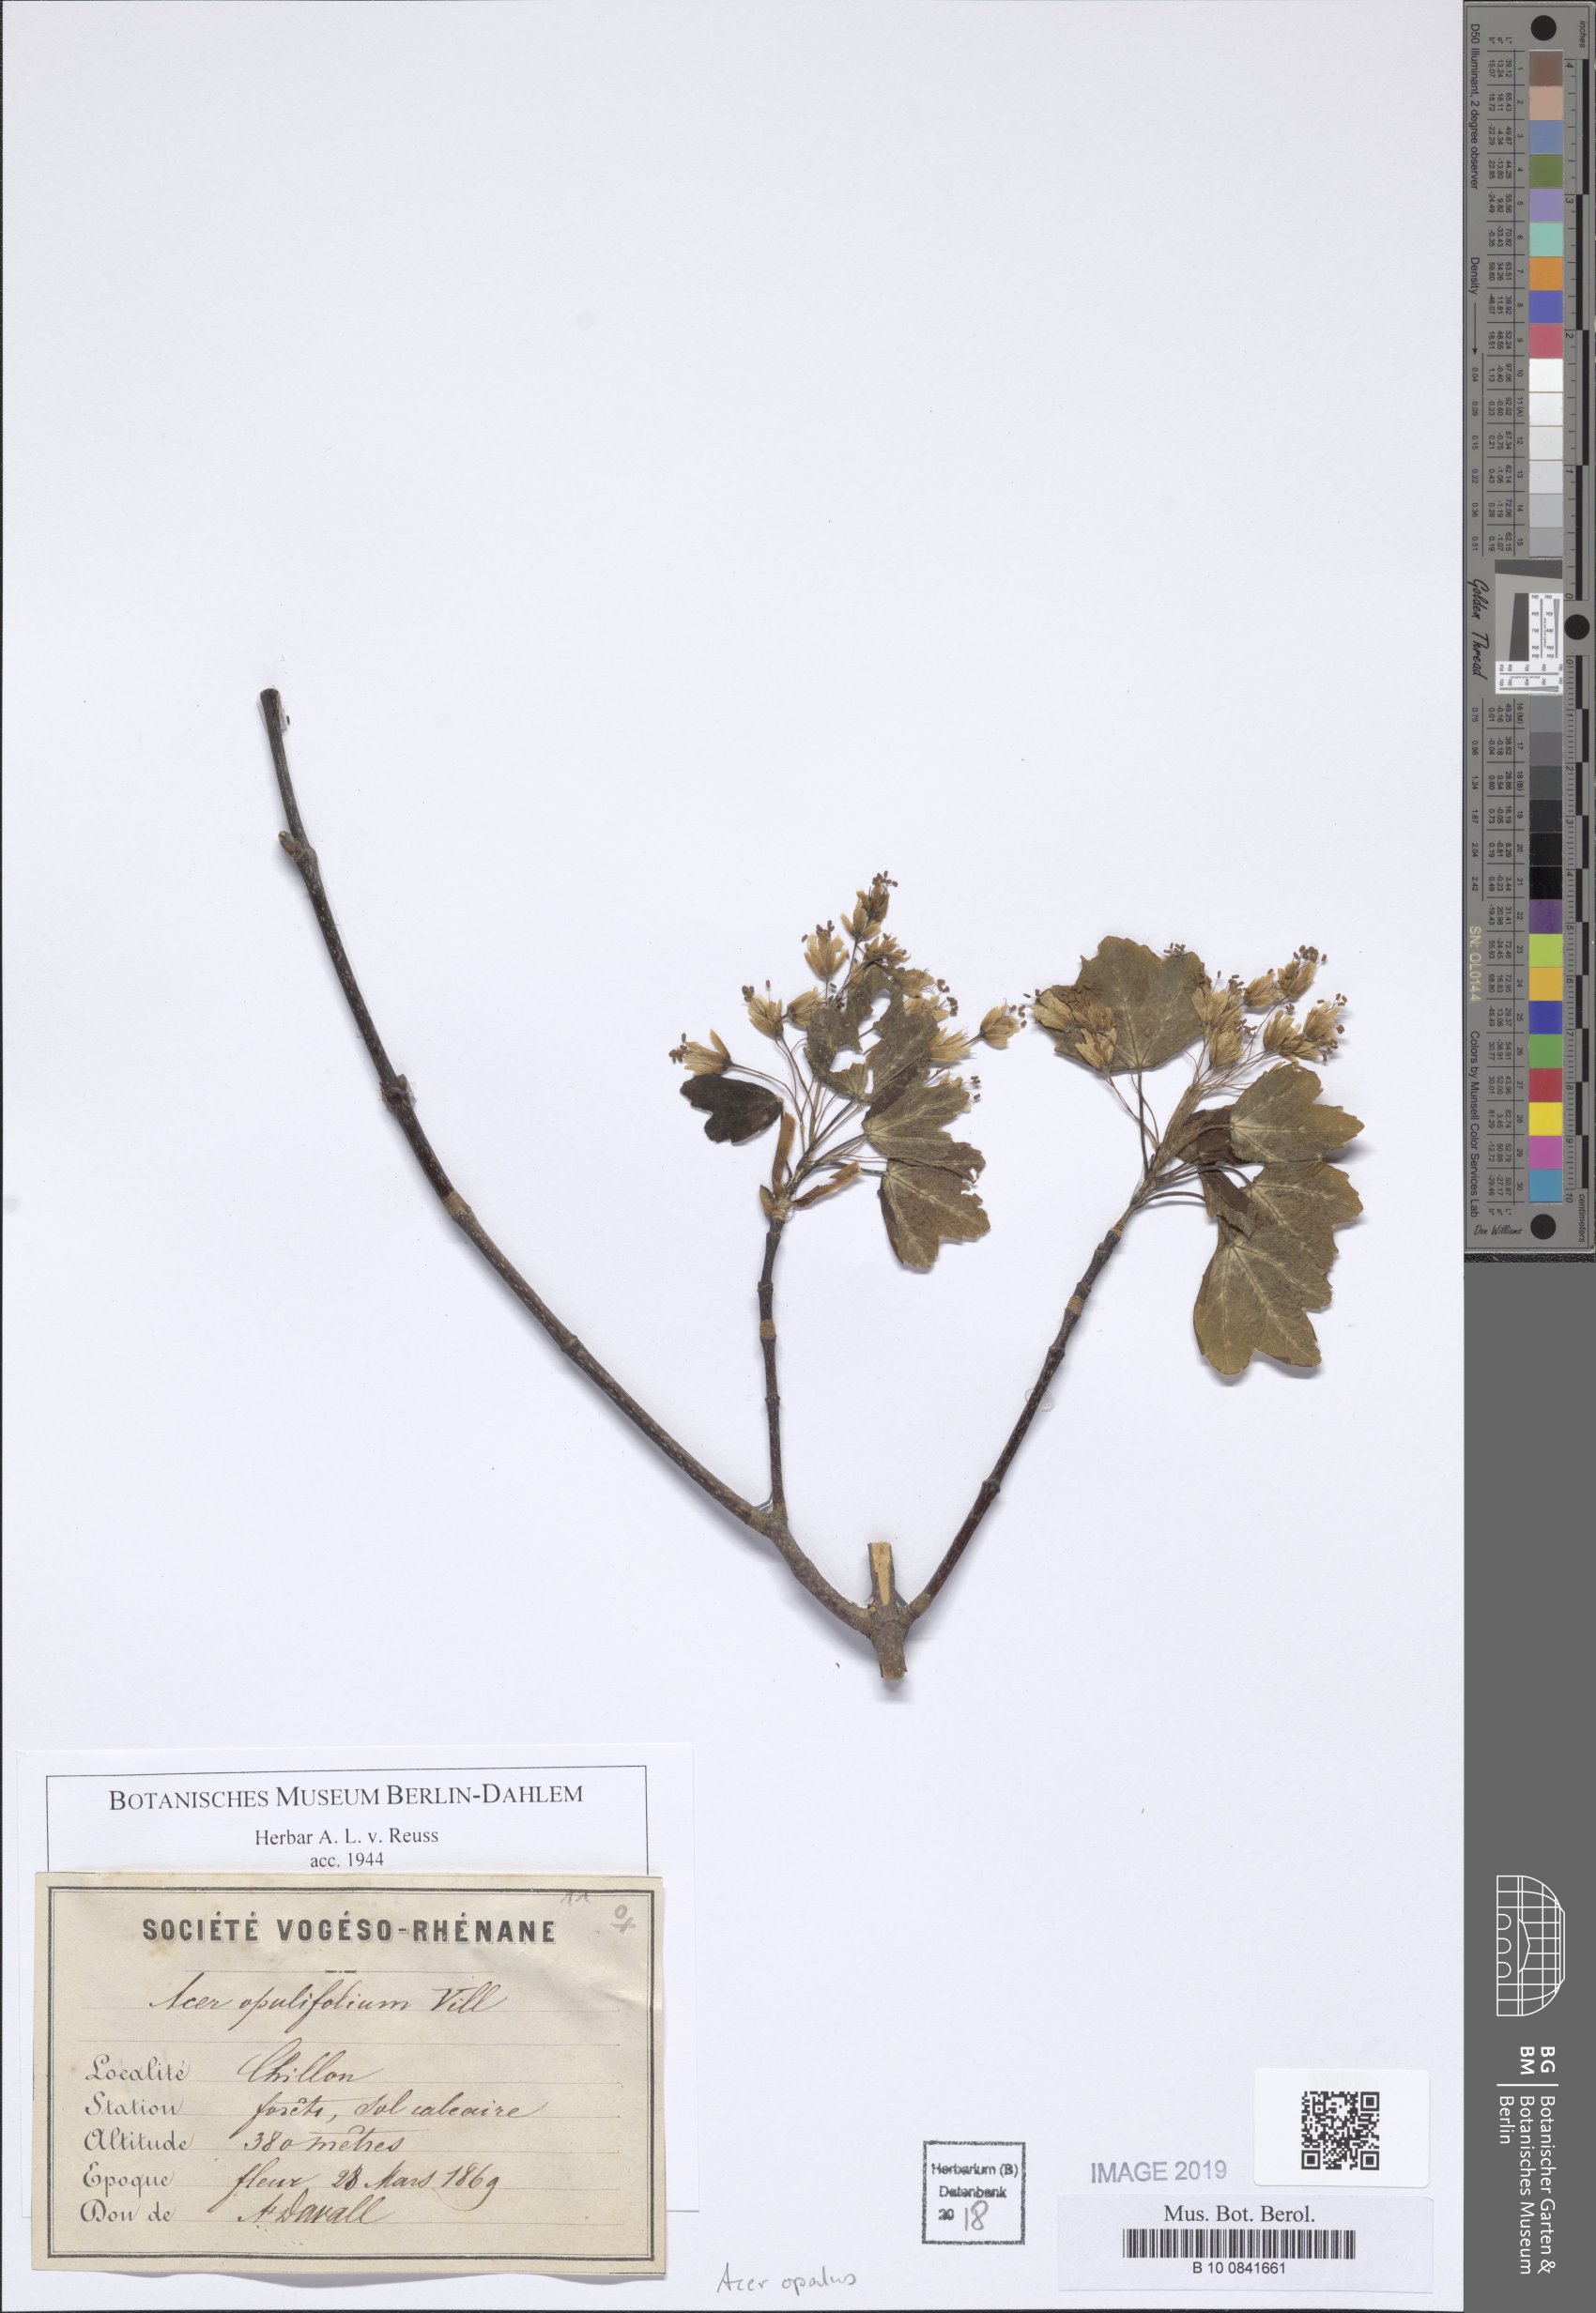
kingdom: Plantae
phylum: Tracheophyta
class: Magnoliopsida
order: Sapindales
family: Sapindaceae
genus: Acer
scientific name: Acer opalus
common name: Italian maple
